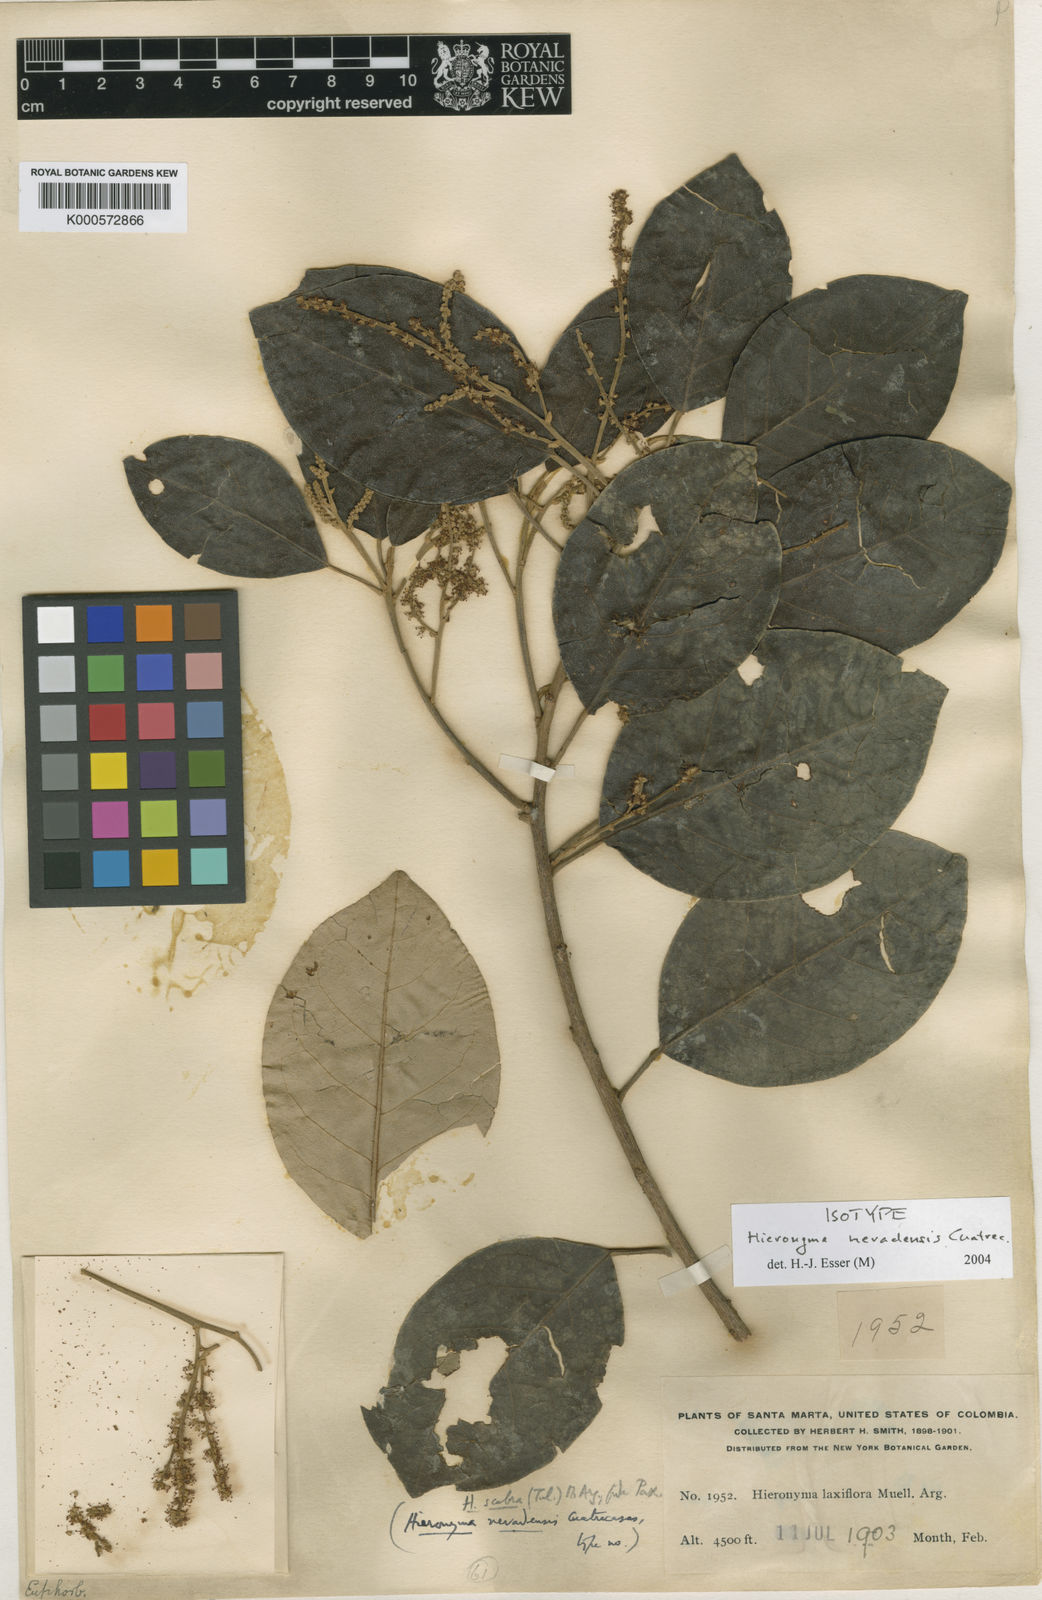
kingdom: Plantae
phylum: Tracheophyta
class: Magnoliopsida
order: Malpighiales
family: Phyllanthaceae
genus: Hieronyma
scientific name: Hieronyma fendleri
